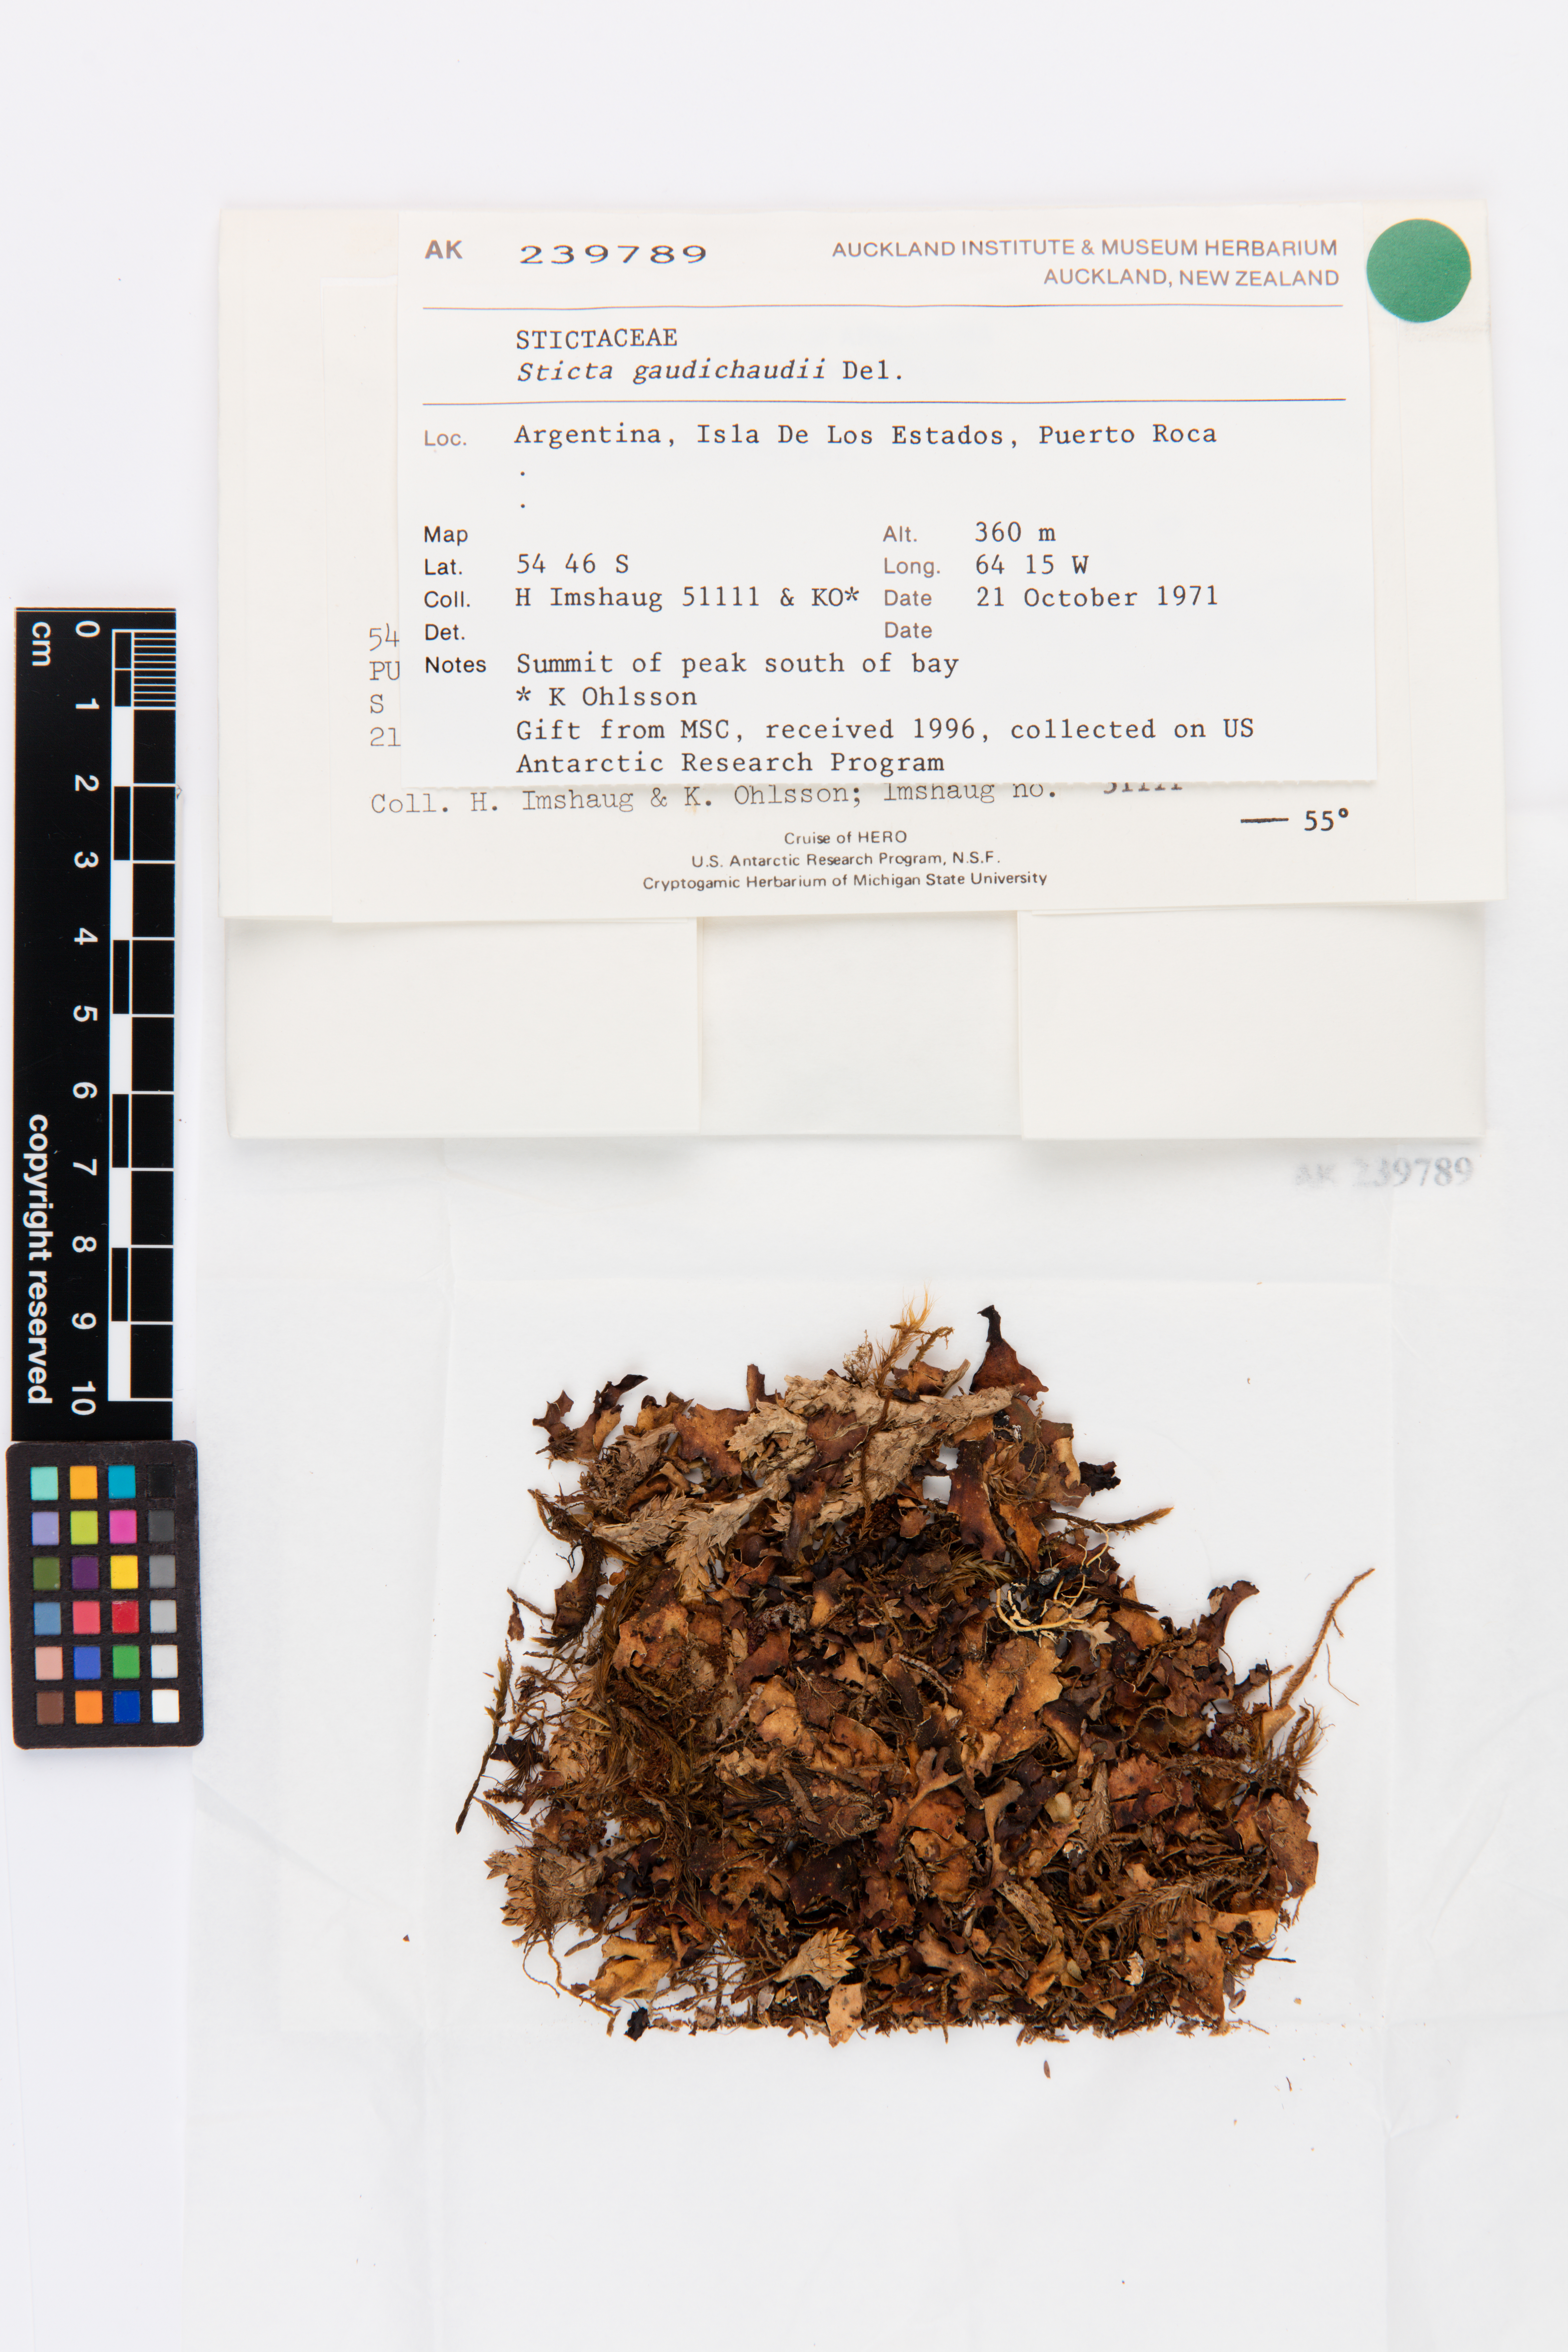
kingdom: Fungi
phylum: Ascomycota
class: Lecanoromycetes
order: Peltigerales
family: Lobariaceae
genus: Sticta
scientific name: Sticta gaudichaudii
